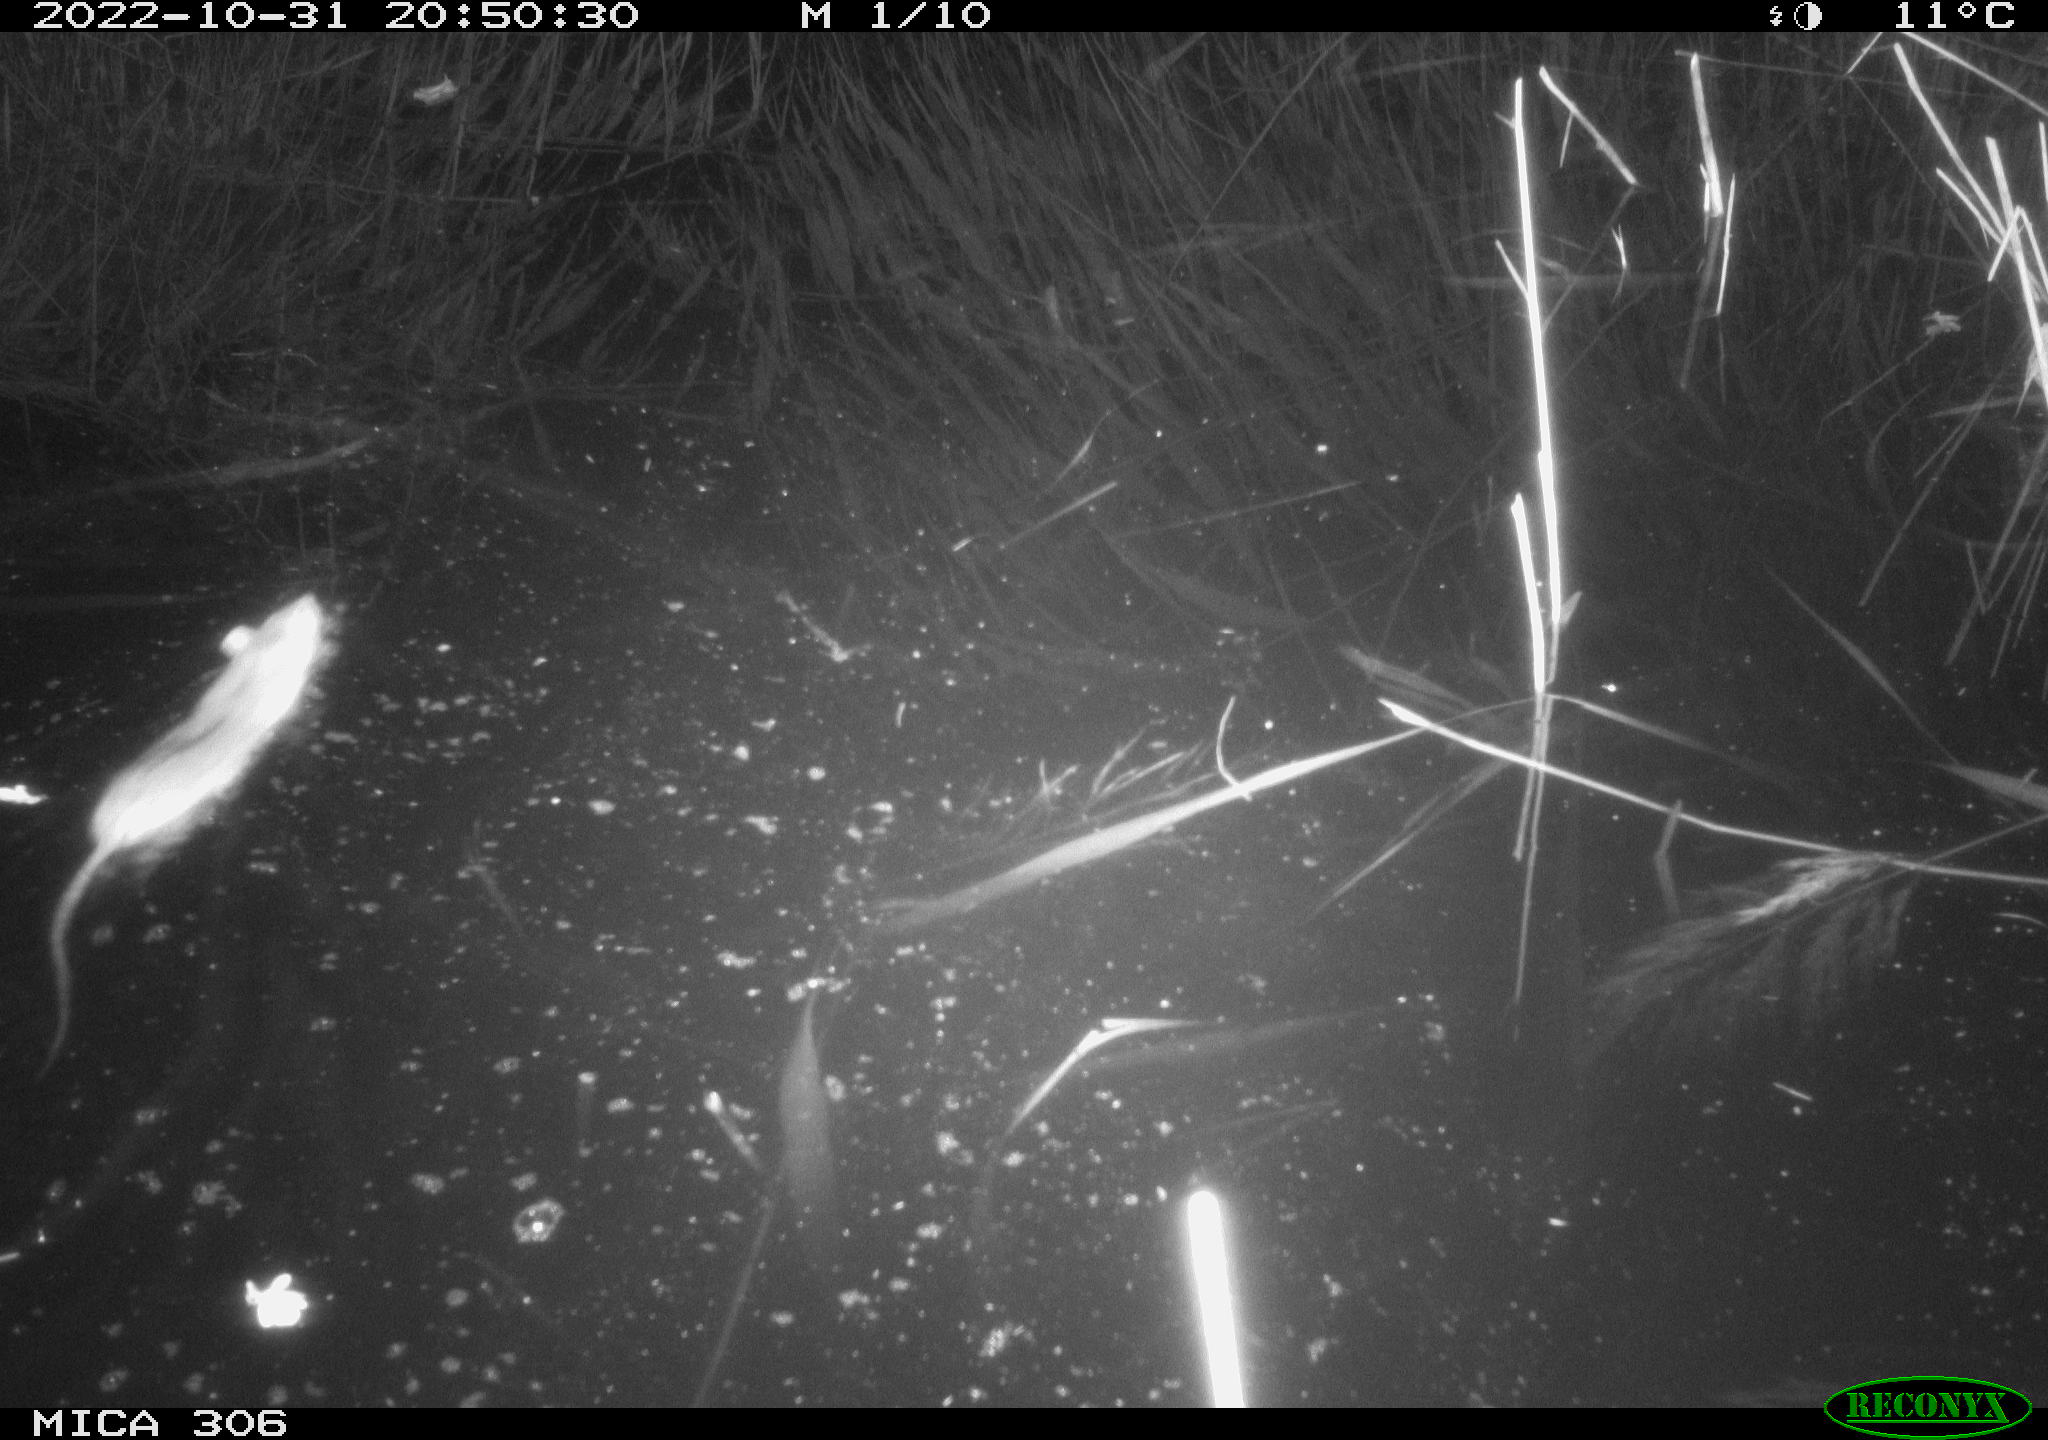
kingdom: Animalia
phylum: Chordata
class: Mammalia
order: Rodentia
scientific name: Rodentia
